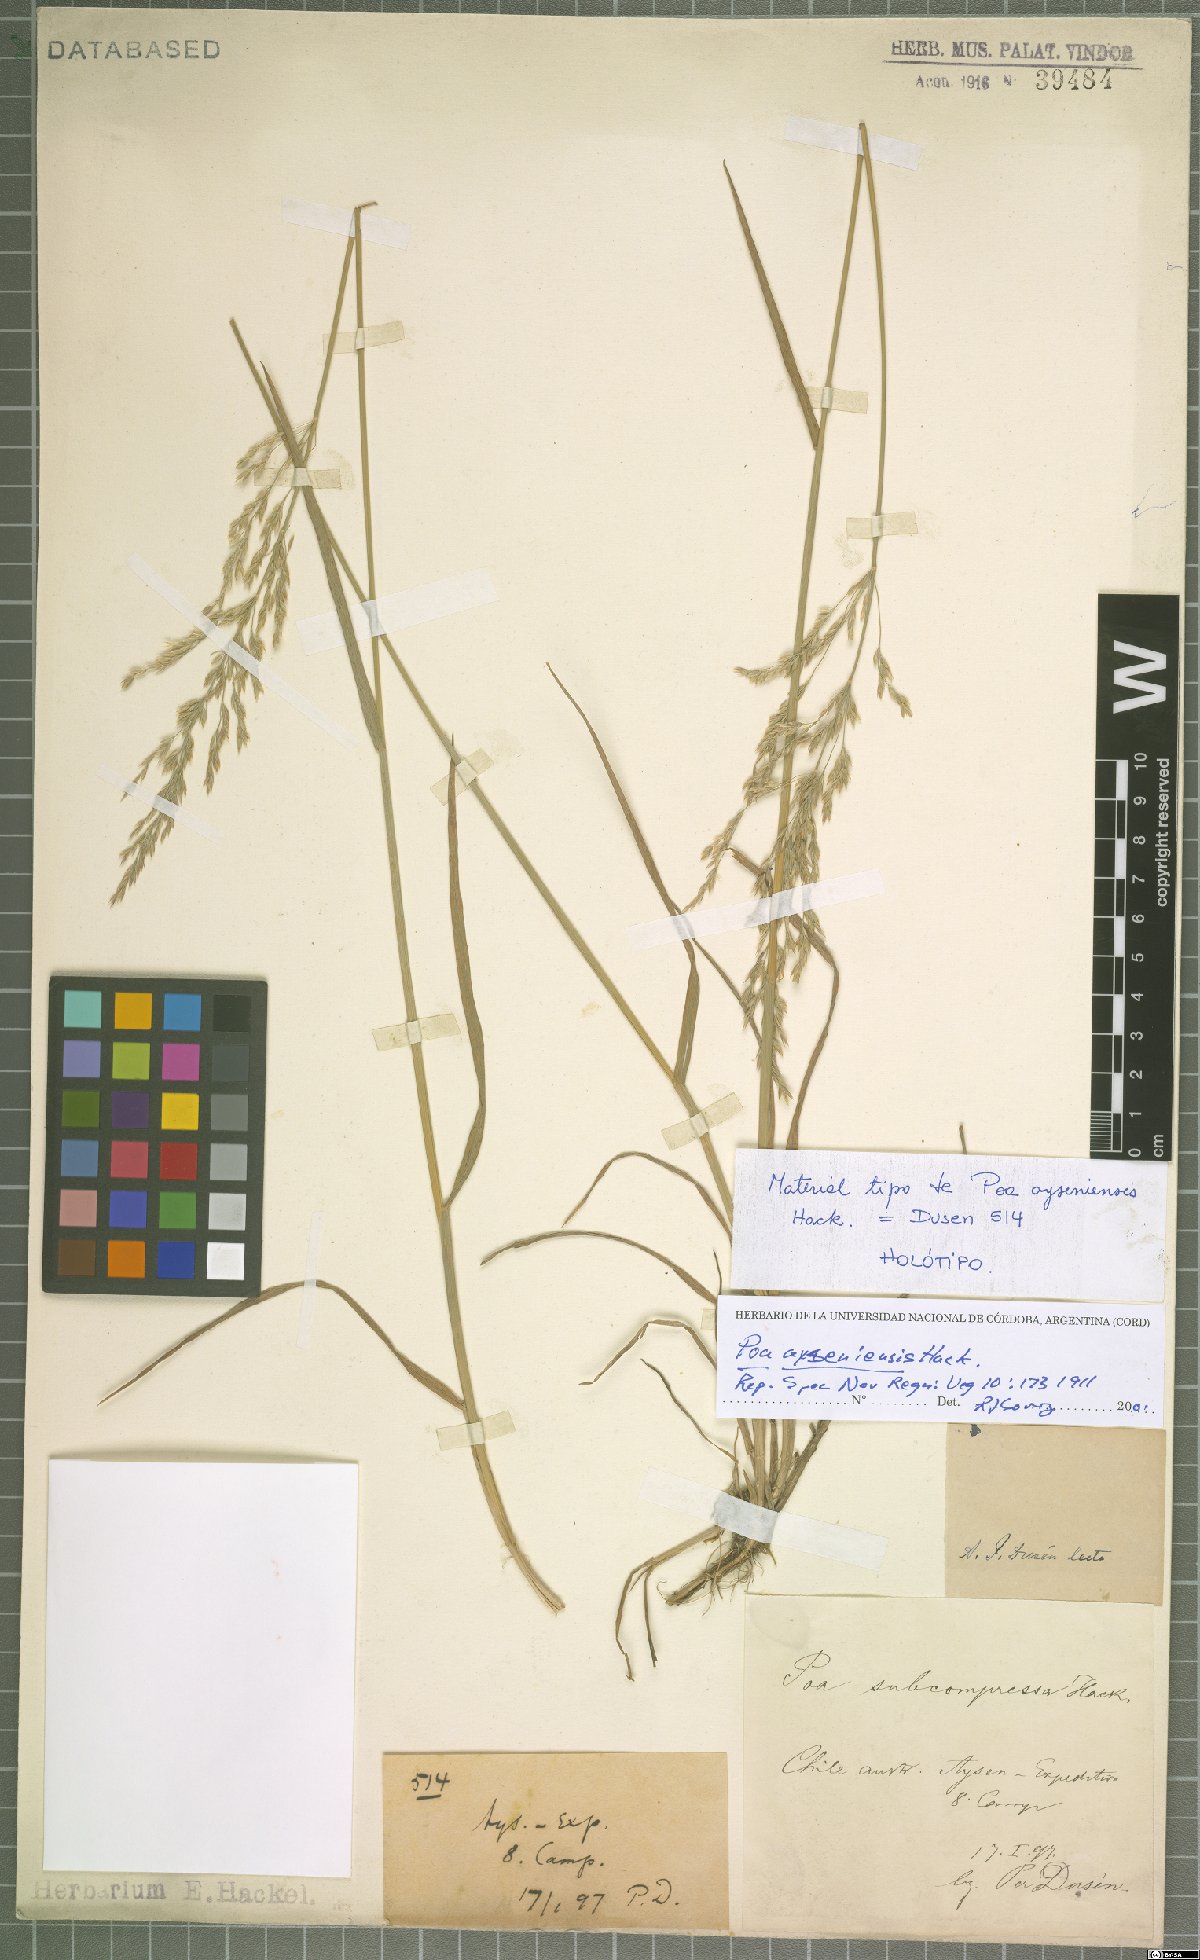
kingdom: Plantae
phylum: Tracheophyta
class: Liliopsida
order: Poales
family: Poaceae
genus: Poa
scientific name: Poa ayseniensis
